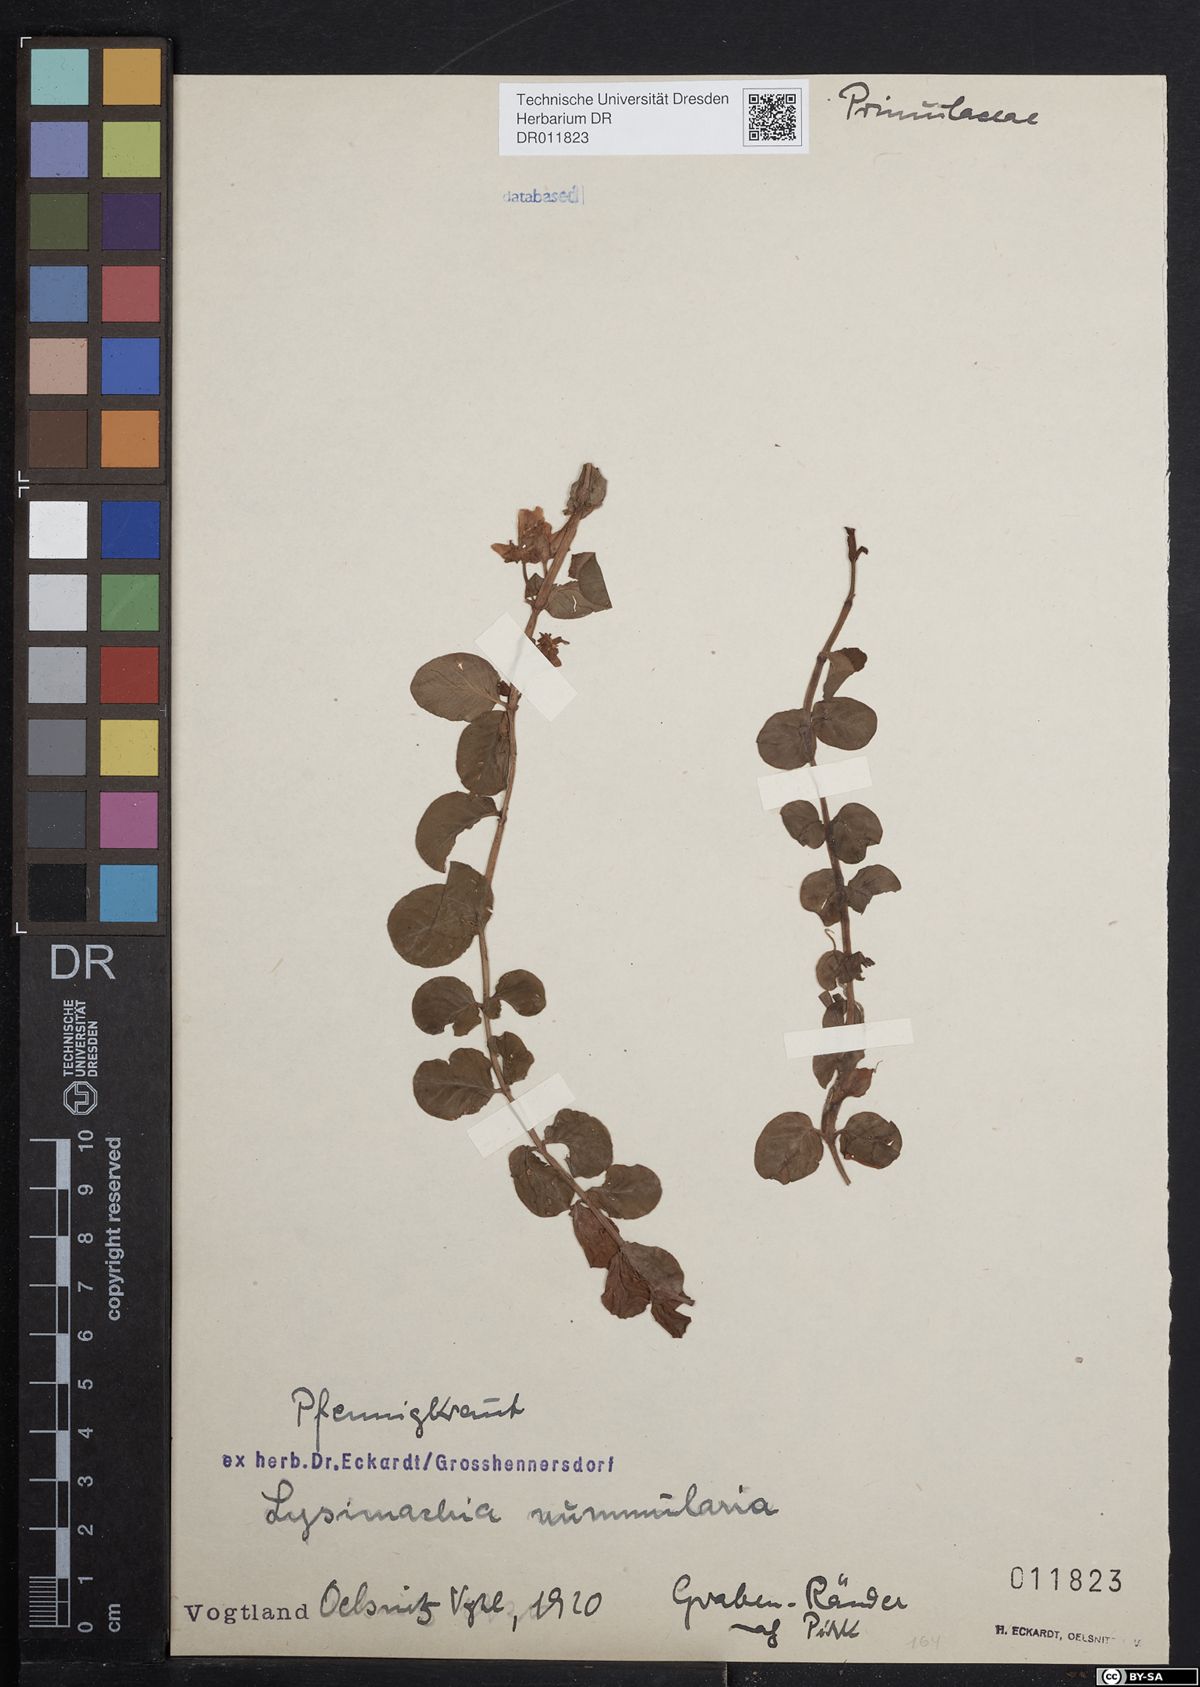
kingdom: Plantae
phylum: Tracheophyta
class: Magnoliopsida
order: Ericales
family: Primulaceae
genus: Lysimachia
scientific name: Lysimachia nummularia
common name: Moneywort
